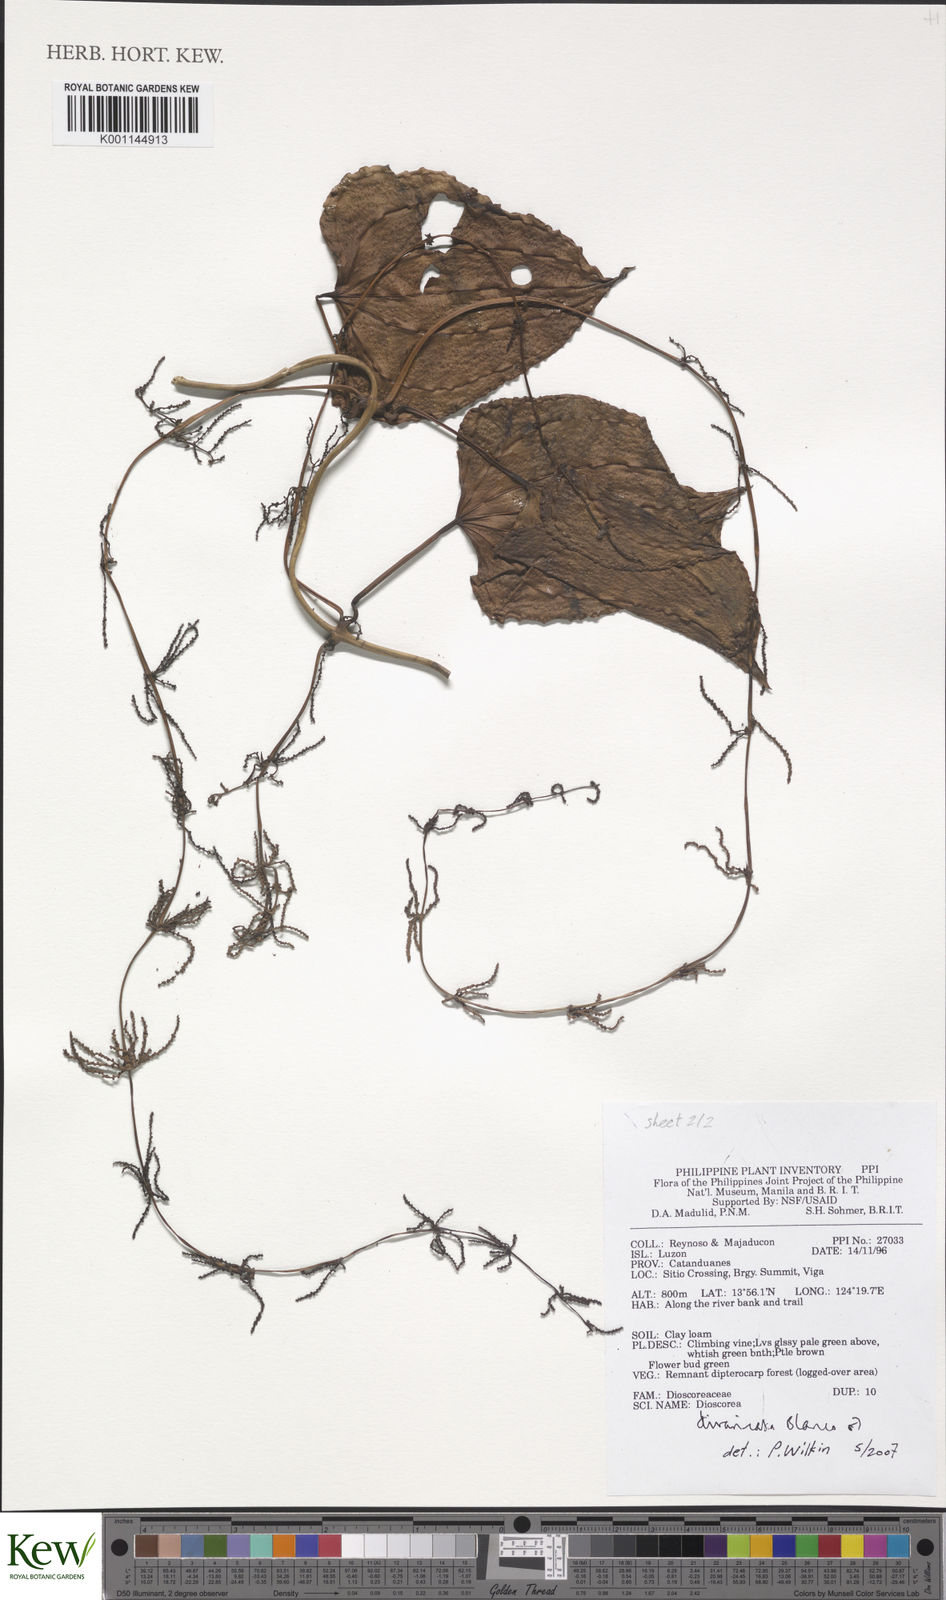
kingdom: Plantae
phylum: Tracheophyta
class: Liliopsida
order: Dioscoreales
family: Dioscoreaceae
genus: Dioscorea
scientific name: Dioscorea divaricata
